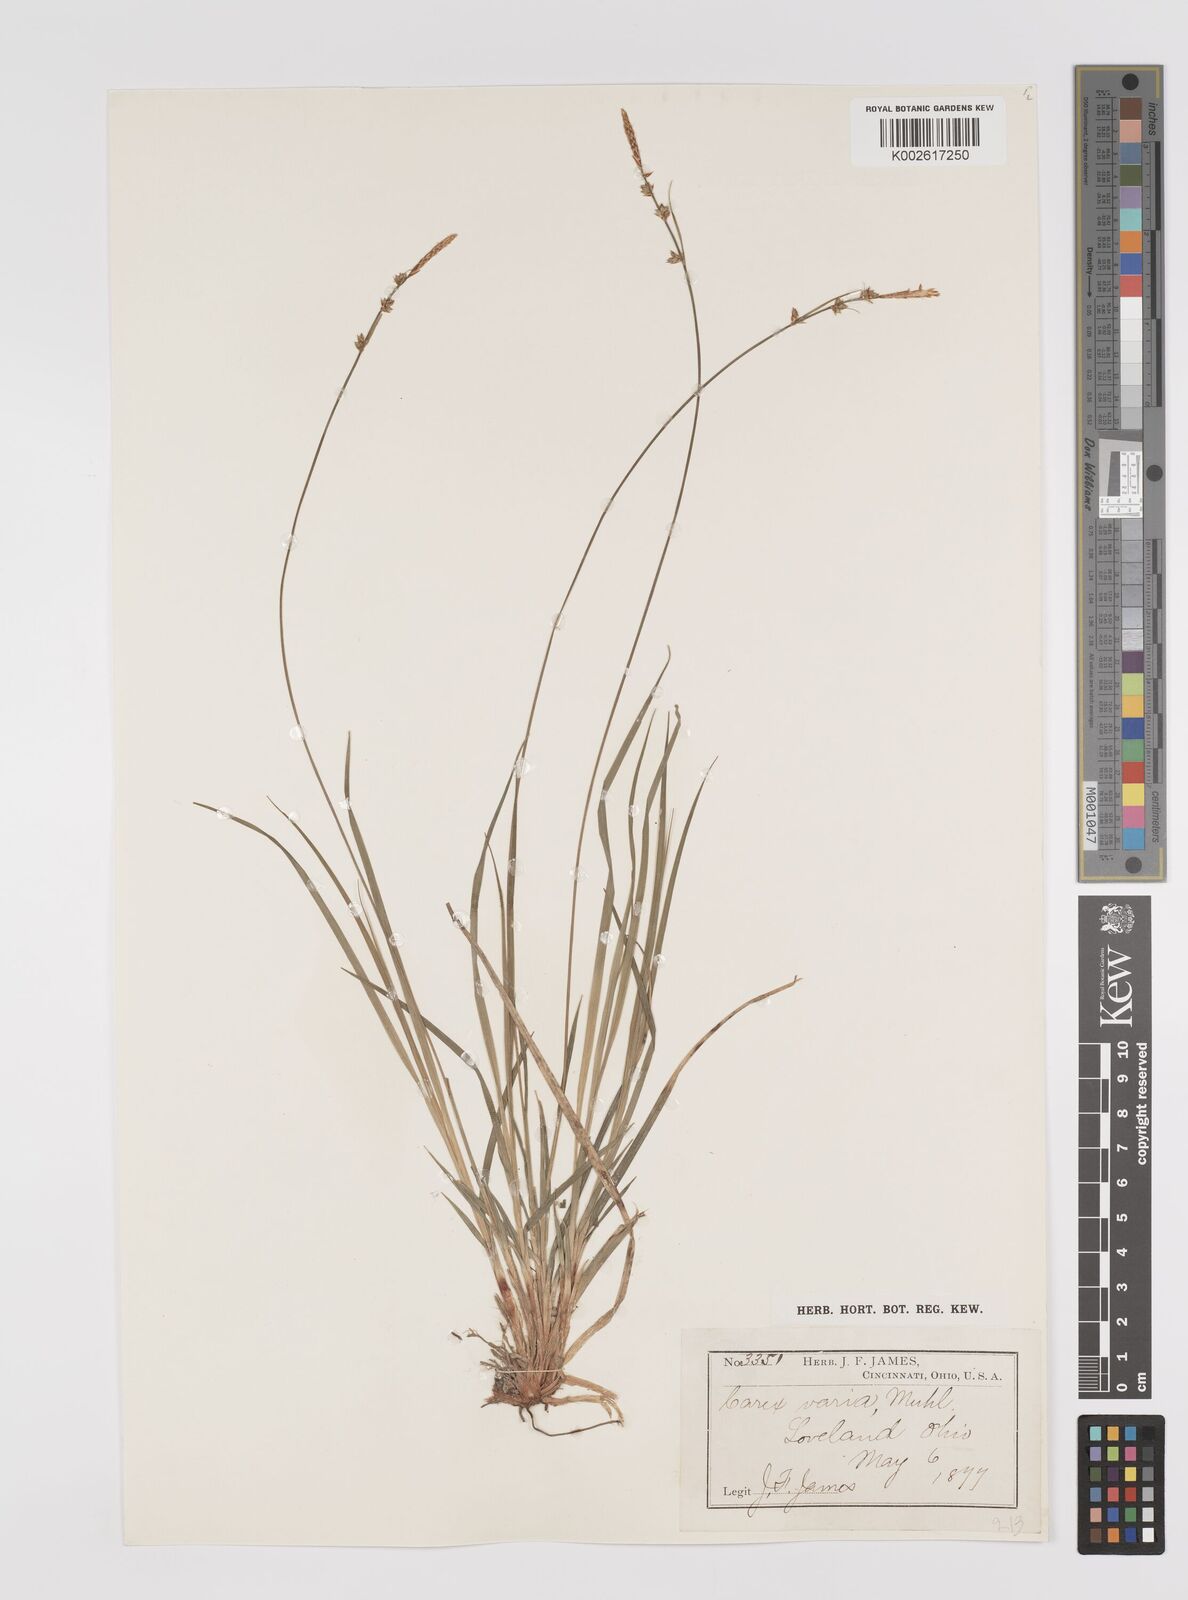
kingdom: Plantae
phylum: Tracheophyta
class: Liliopsida
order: Poales
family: Cyperaceae
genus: Carex
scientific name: Carex albicans
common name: Bellow-beaked sedge
